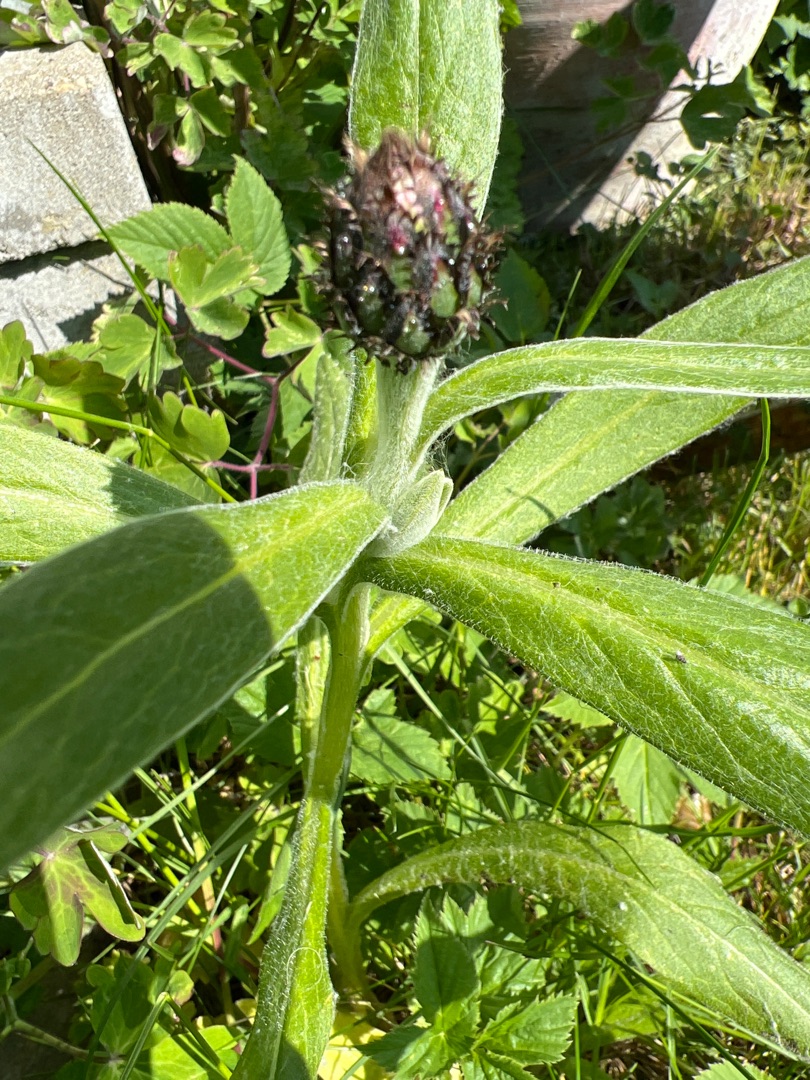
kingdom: Plantae
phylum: Tracheophyta
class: Magnoliopsida
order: Asterales
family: Asteraceae
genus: Centaurea
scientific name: Centaurea montana
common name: Bjerg-knopurt
